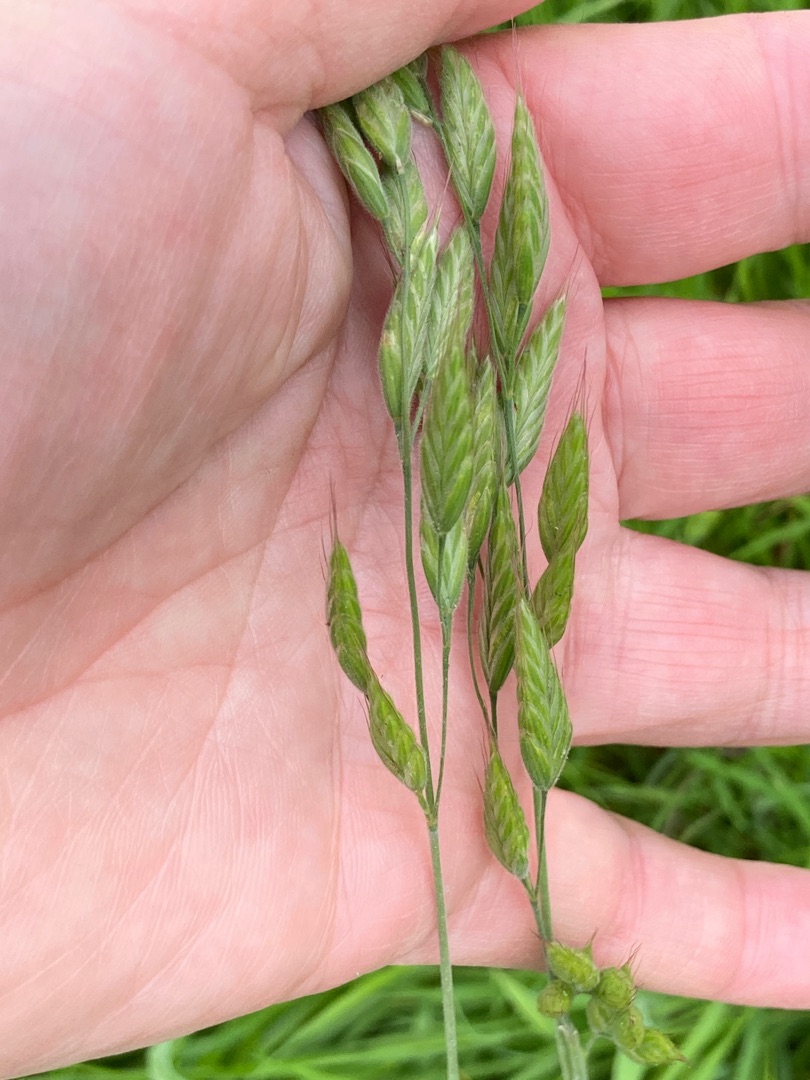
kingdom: Plantae
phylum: Tracheophyta
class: Liliopsida
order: Poales
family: Poaceae
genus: Bromus
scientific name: Bromus hordeaceus
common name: Blød hejre
